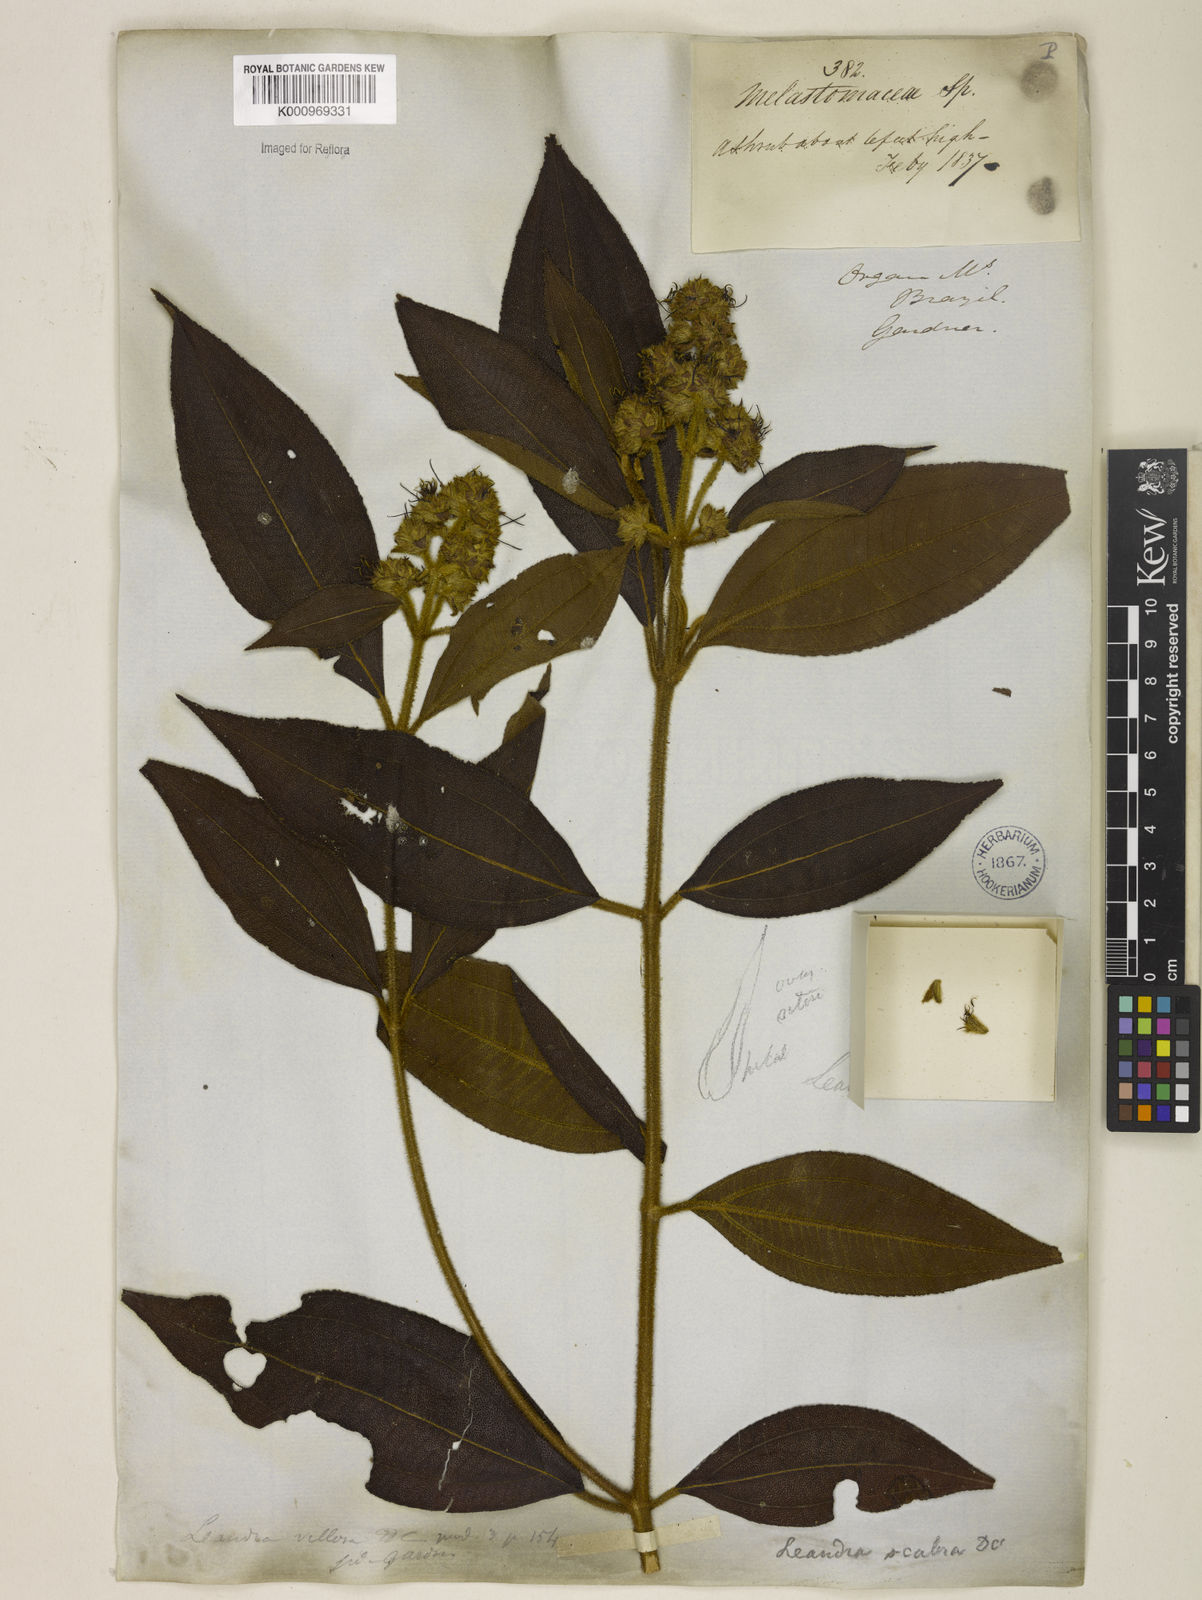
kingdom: Plantae
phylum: Tracheophyta
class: Magnoliopsida
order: Myrtales
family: Melastomataceae
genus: Miconia
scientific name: Miconia melastomoides
